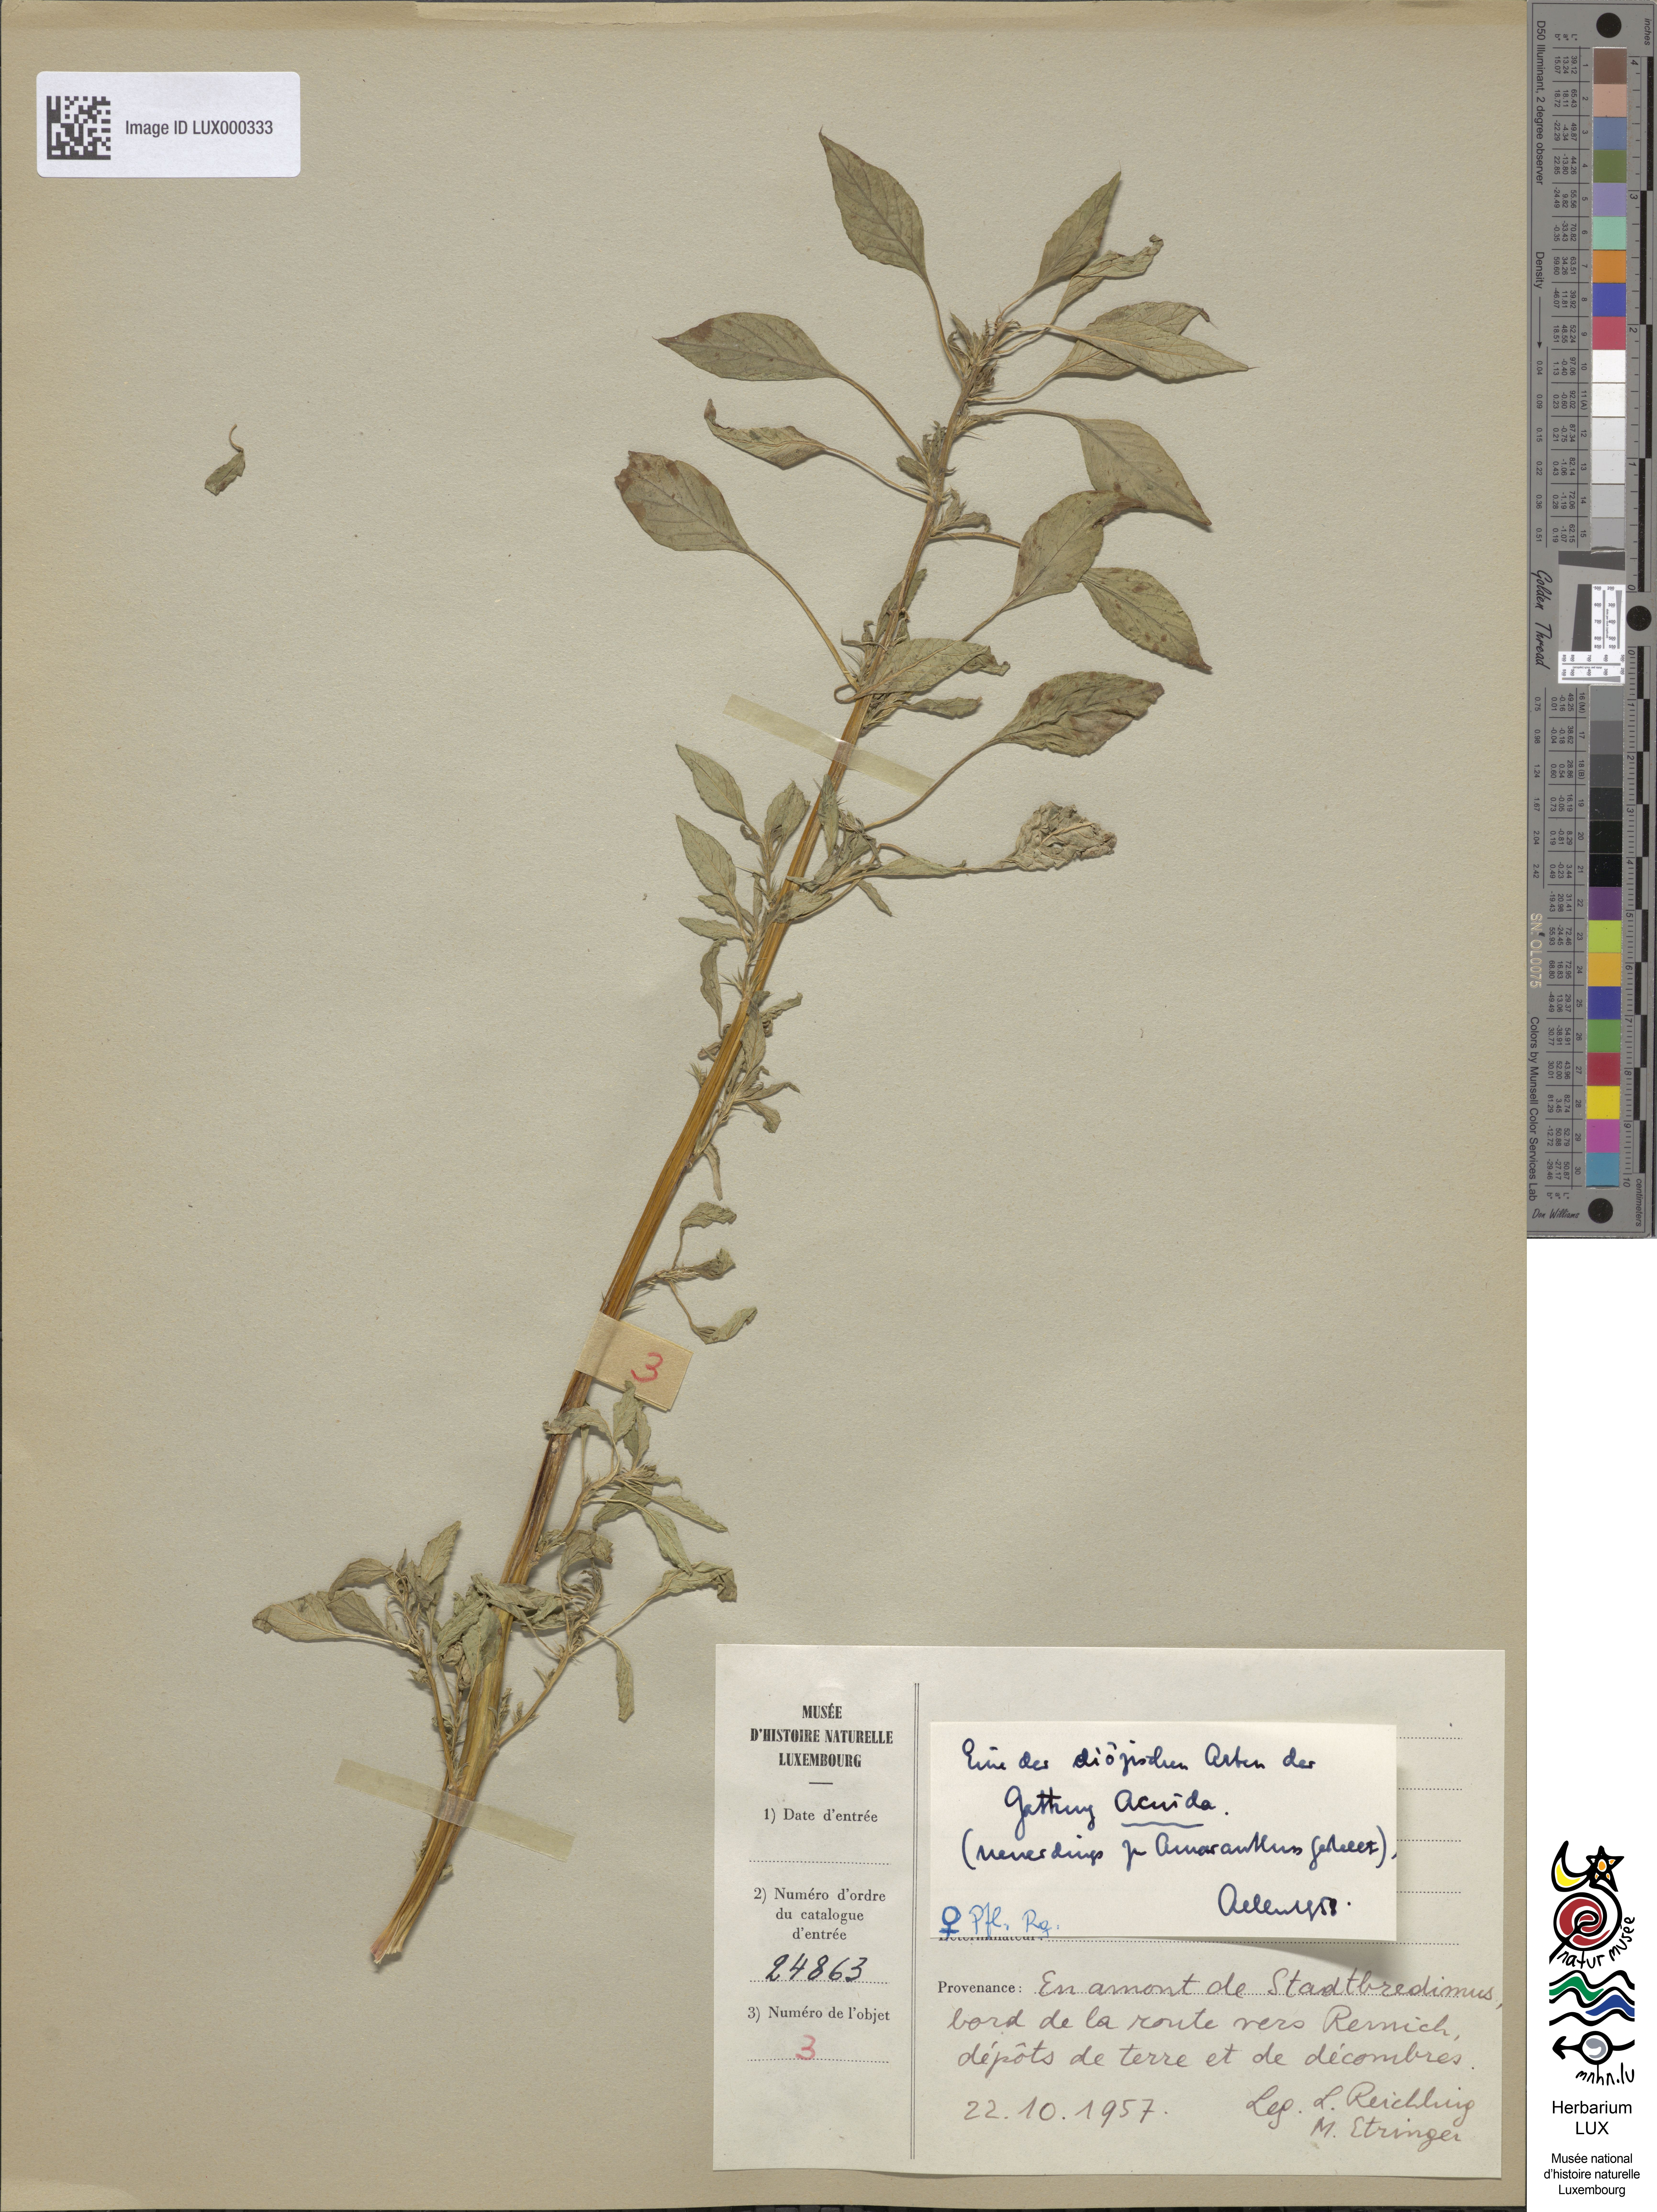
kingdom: Plantae
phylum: Tracheophyta
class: Magnoliopsida
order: Caryophyllales
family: Amaranthaceae
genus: Amaranthus
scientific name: Amaranthus
